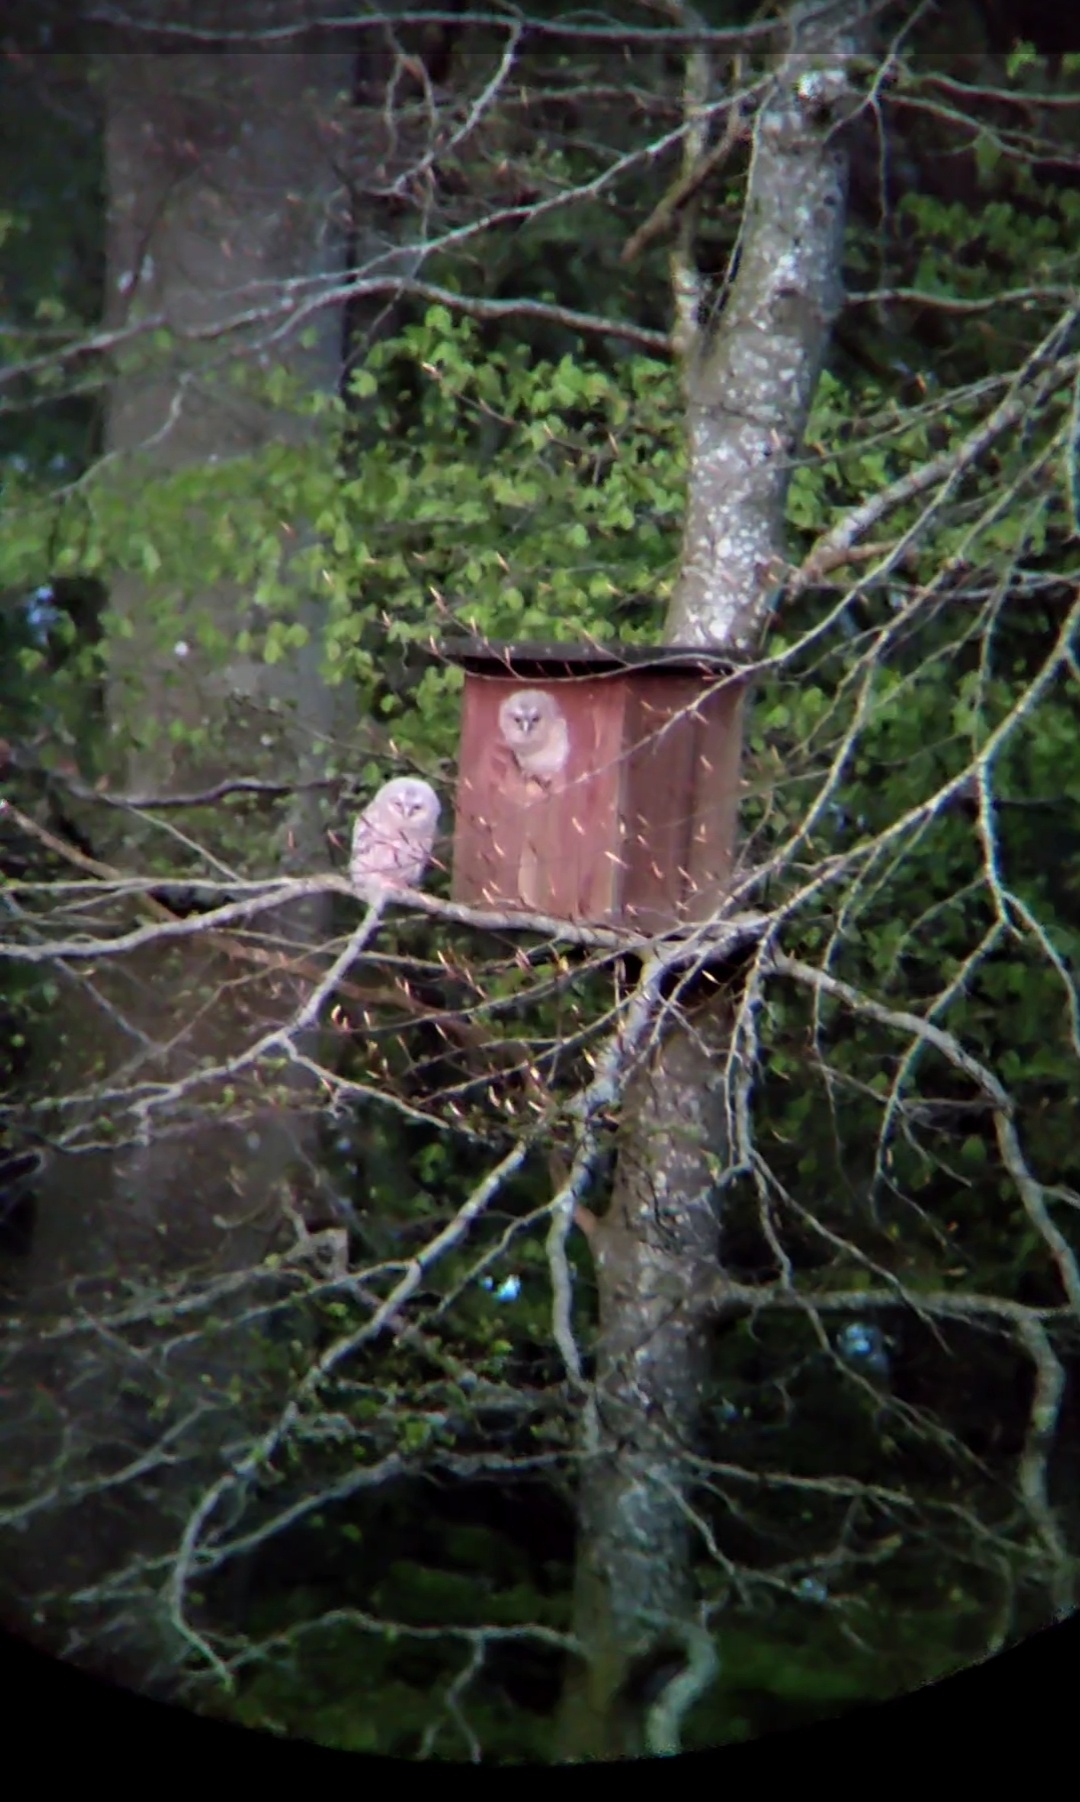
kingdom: Animalia
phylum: Chordata
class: Aves
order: Strigiformes
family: Strigidae
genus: Strix
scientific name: Strix aluco
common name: Natugle
